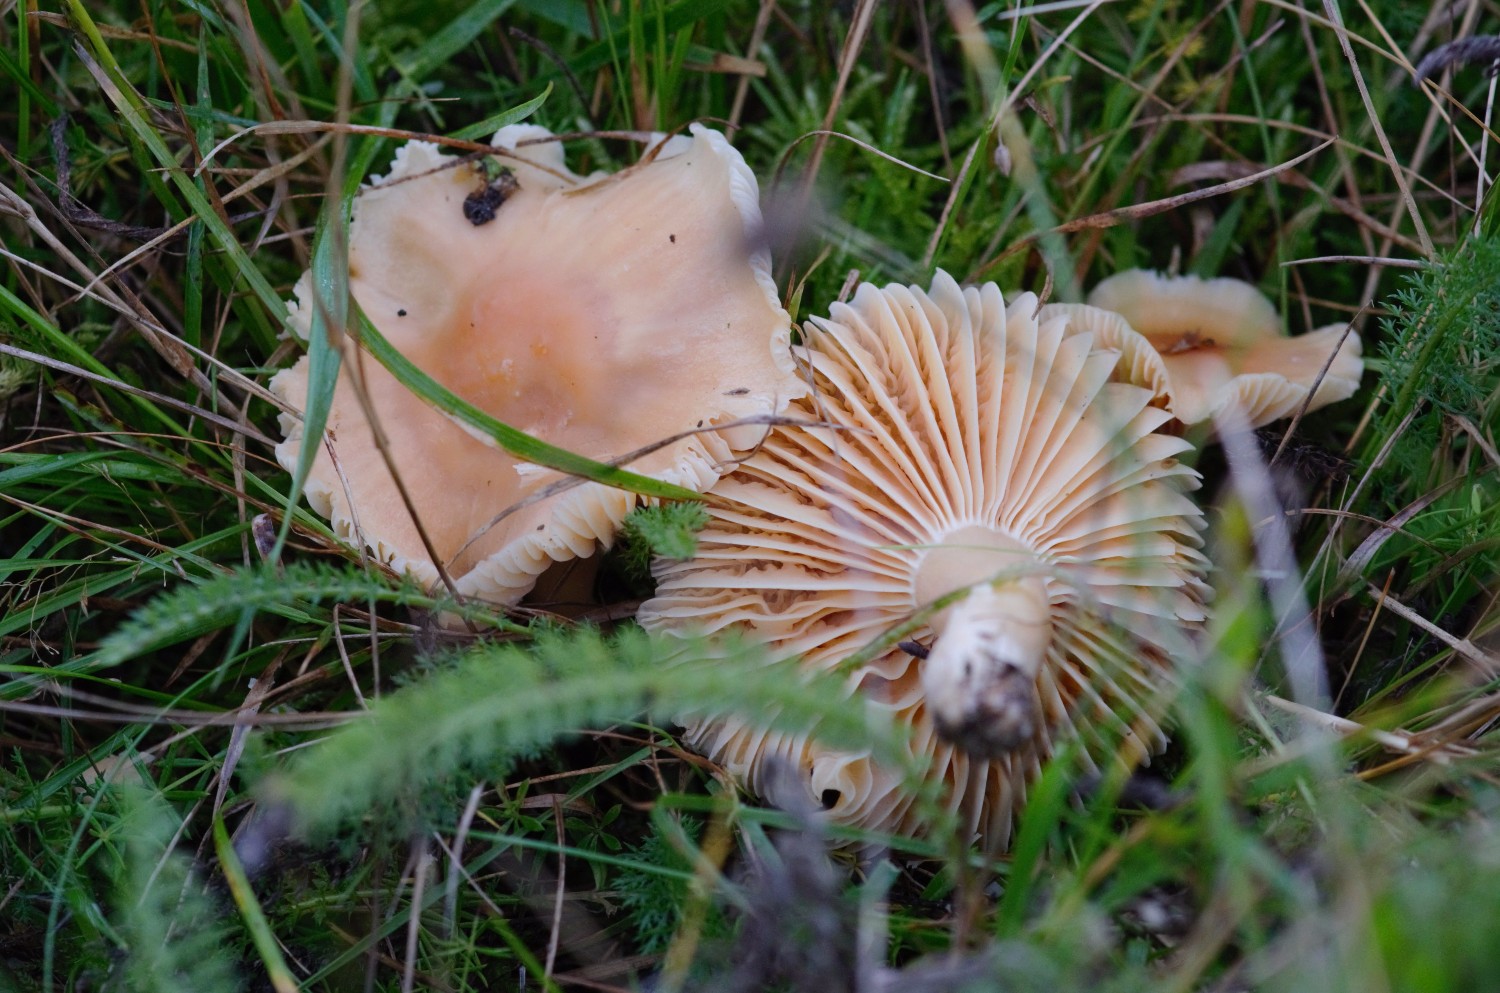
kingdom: Fungi
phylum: Basidiomycota
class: Agaricomycetes
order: Agaricales
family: Hygrophoraceae
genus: Cuphophyllus
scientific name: Cuphophyllus pratensis
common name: eng-vokshat
